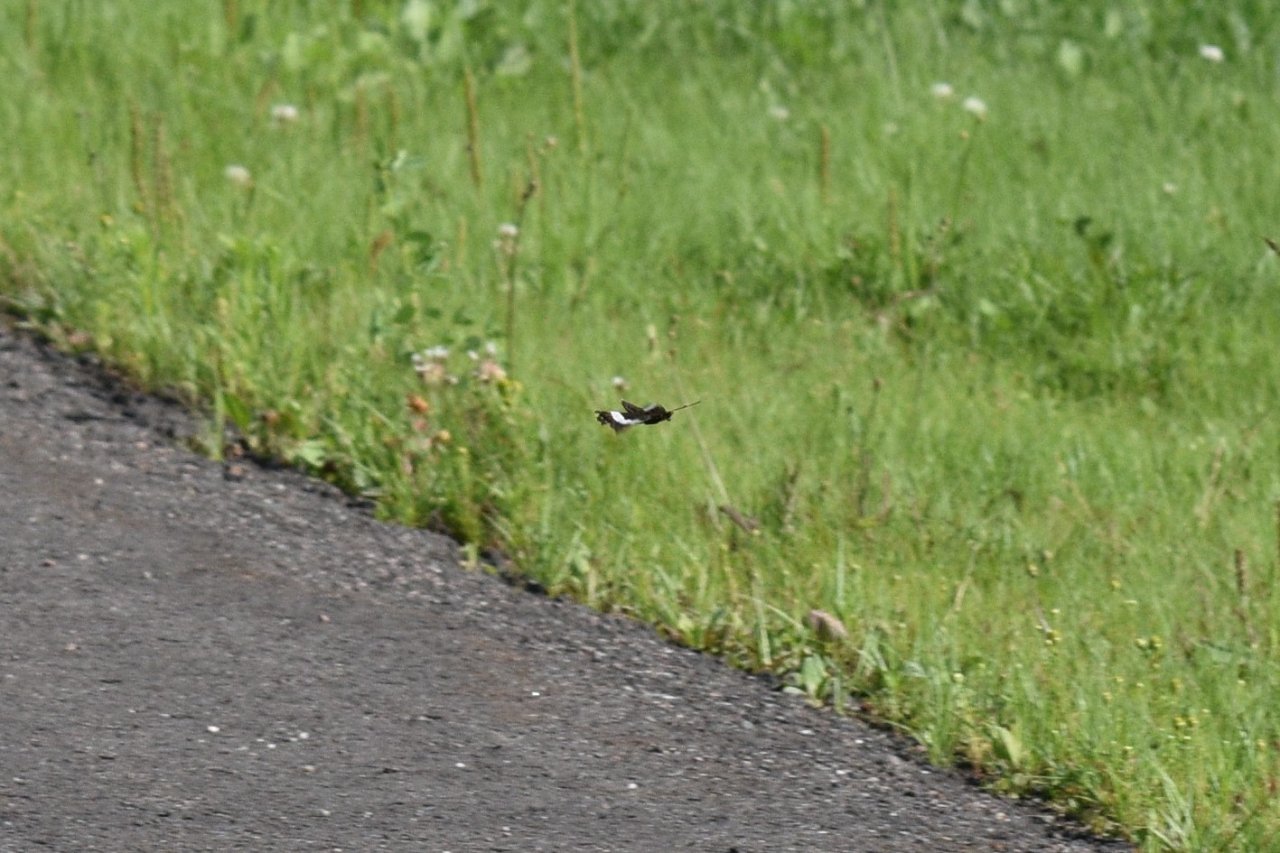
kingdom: Animalia
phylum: Arthropoda
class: Insecta
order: Lepidoptera
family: Nymphalidae
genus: Limenitis
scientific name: Limenitis arthemis
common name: Red-spotted Admiral
